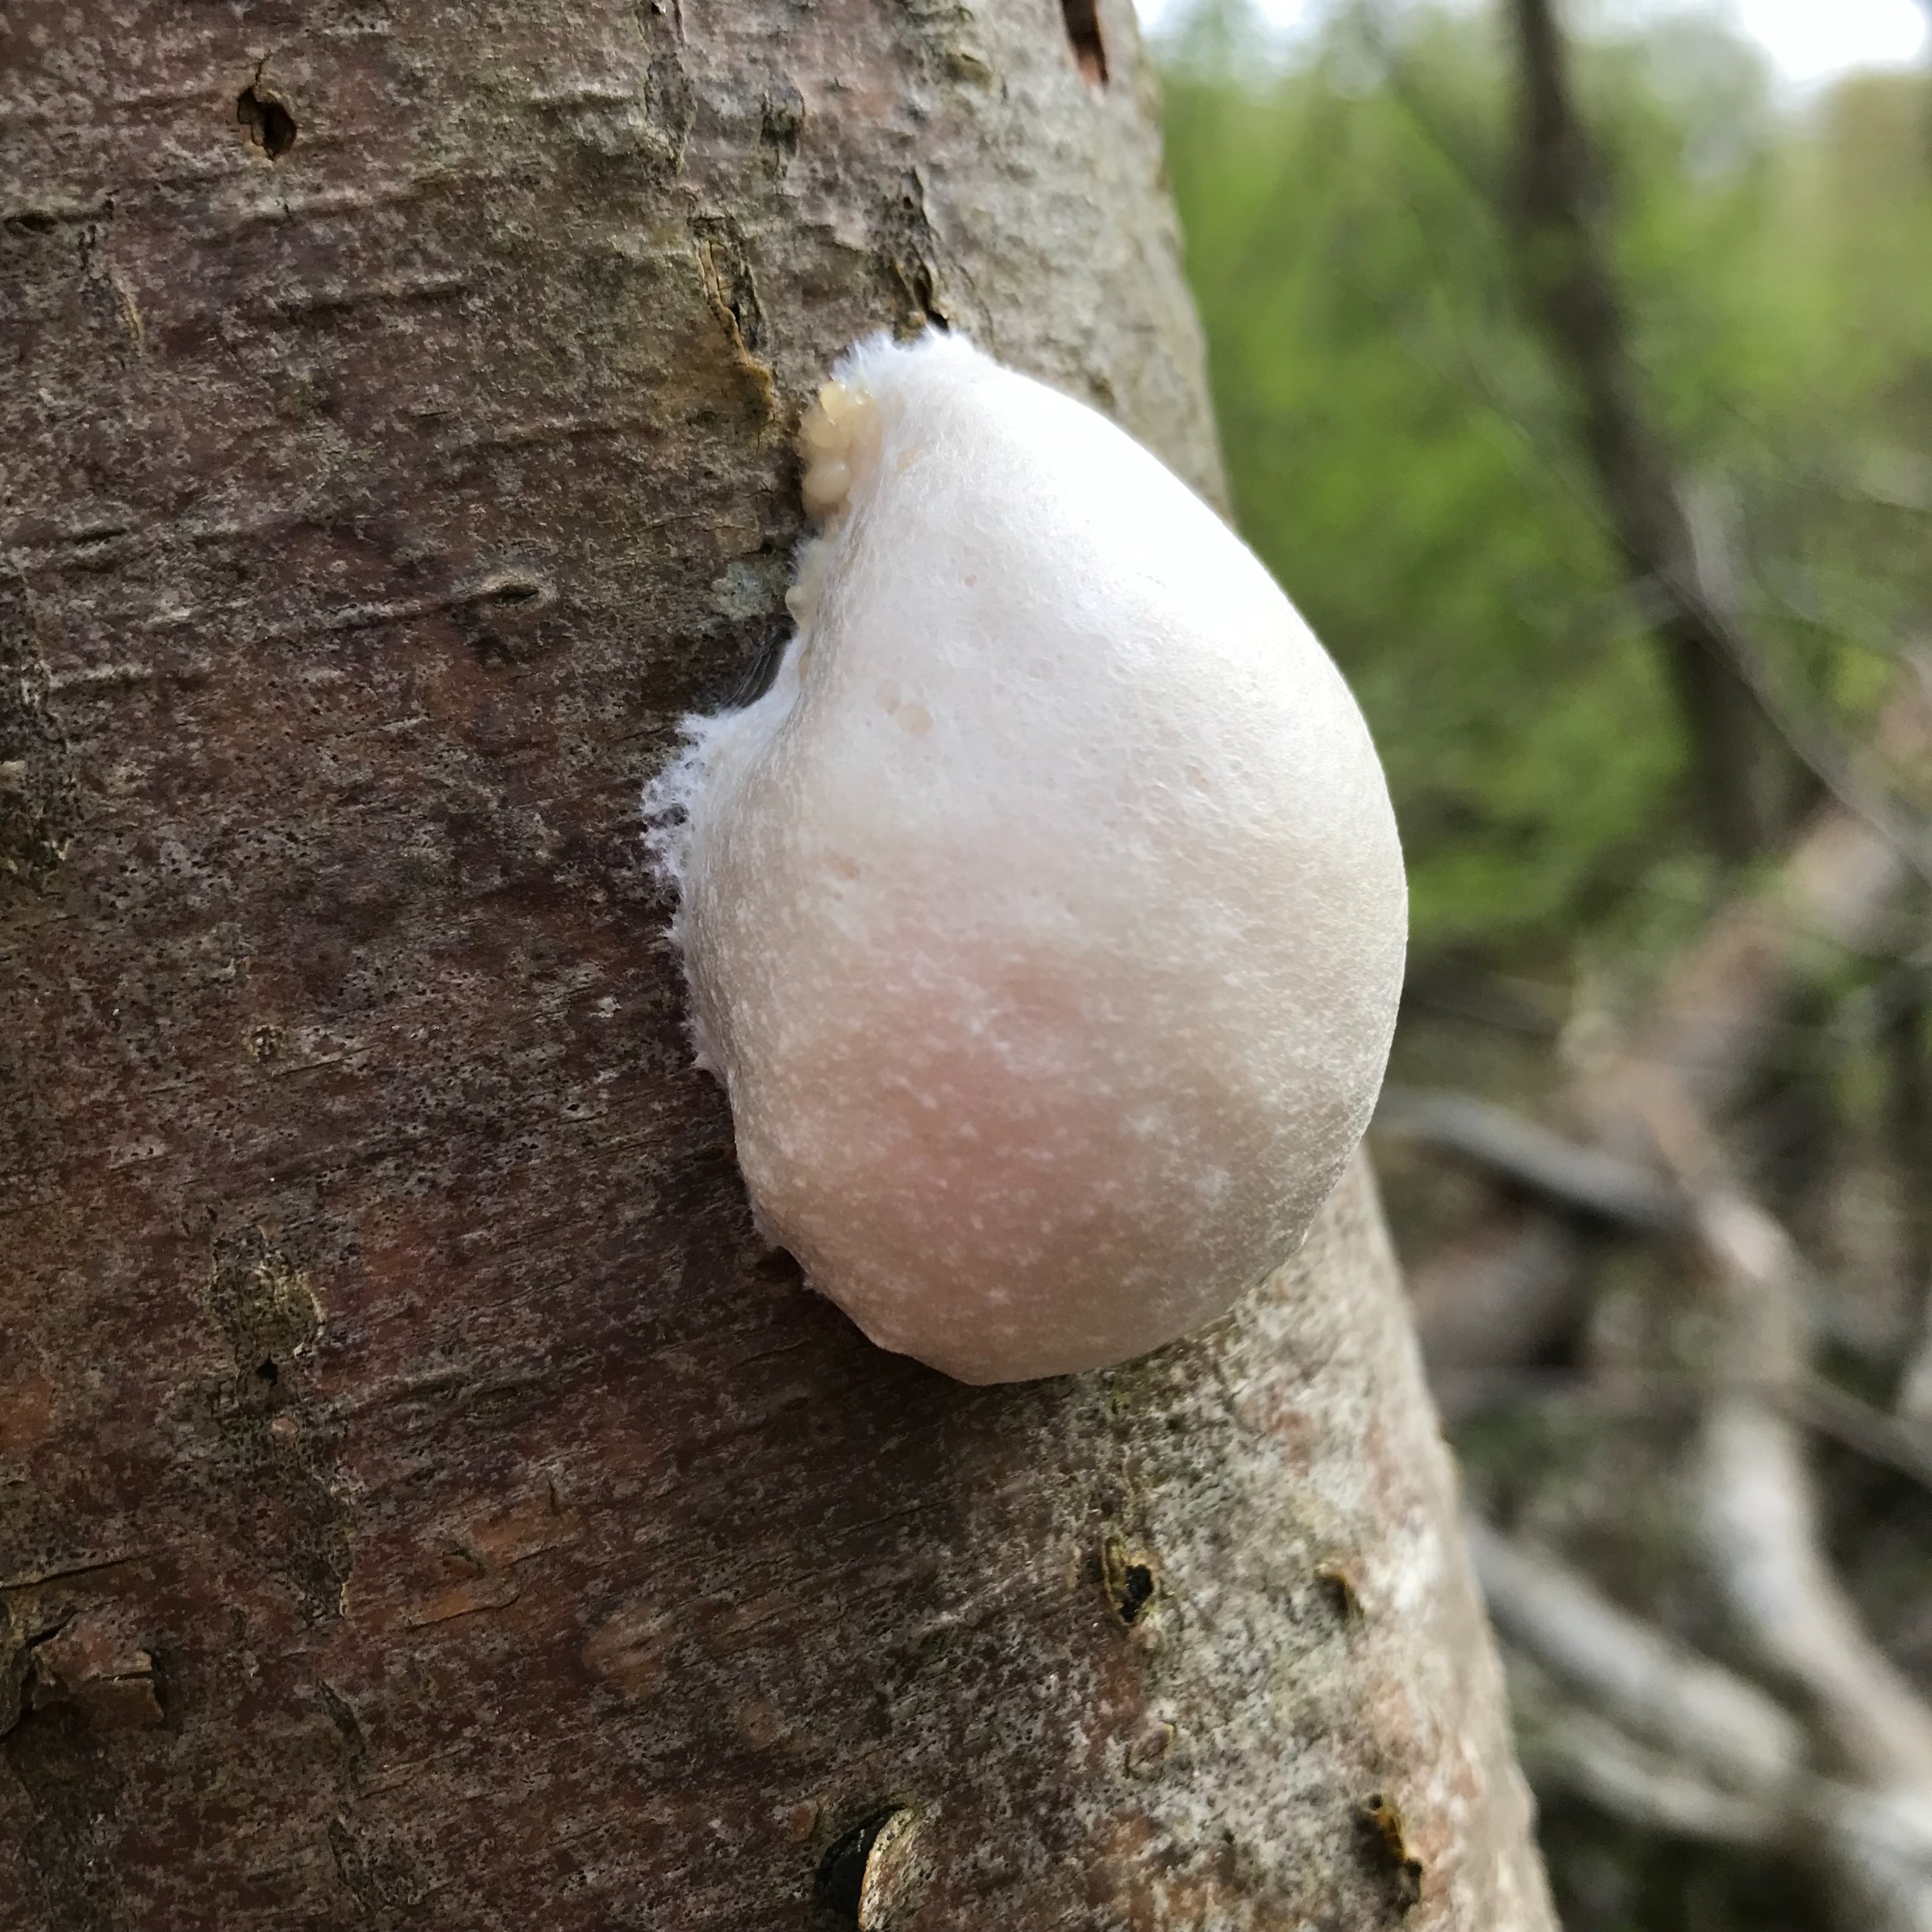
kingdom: Protozoa
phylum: Mycetozoa
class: Myxomycetes
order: Cribrariales
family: Tubiferaceae
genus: Reticularia
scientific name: Reticularia lycoperdon
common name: Skinnende støvpude
